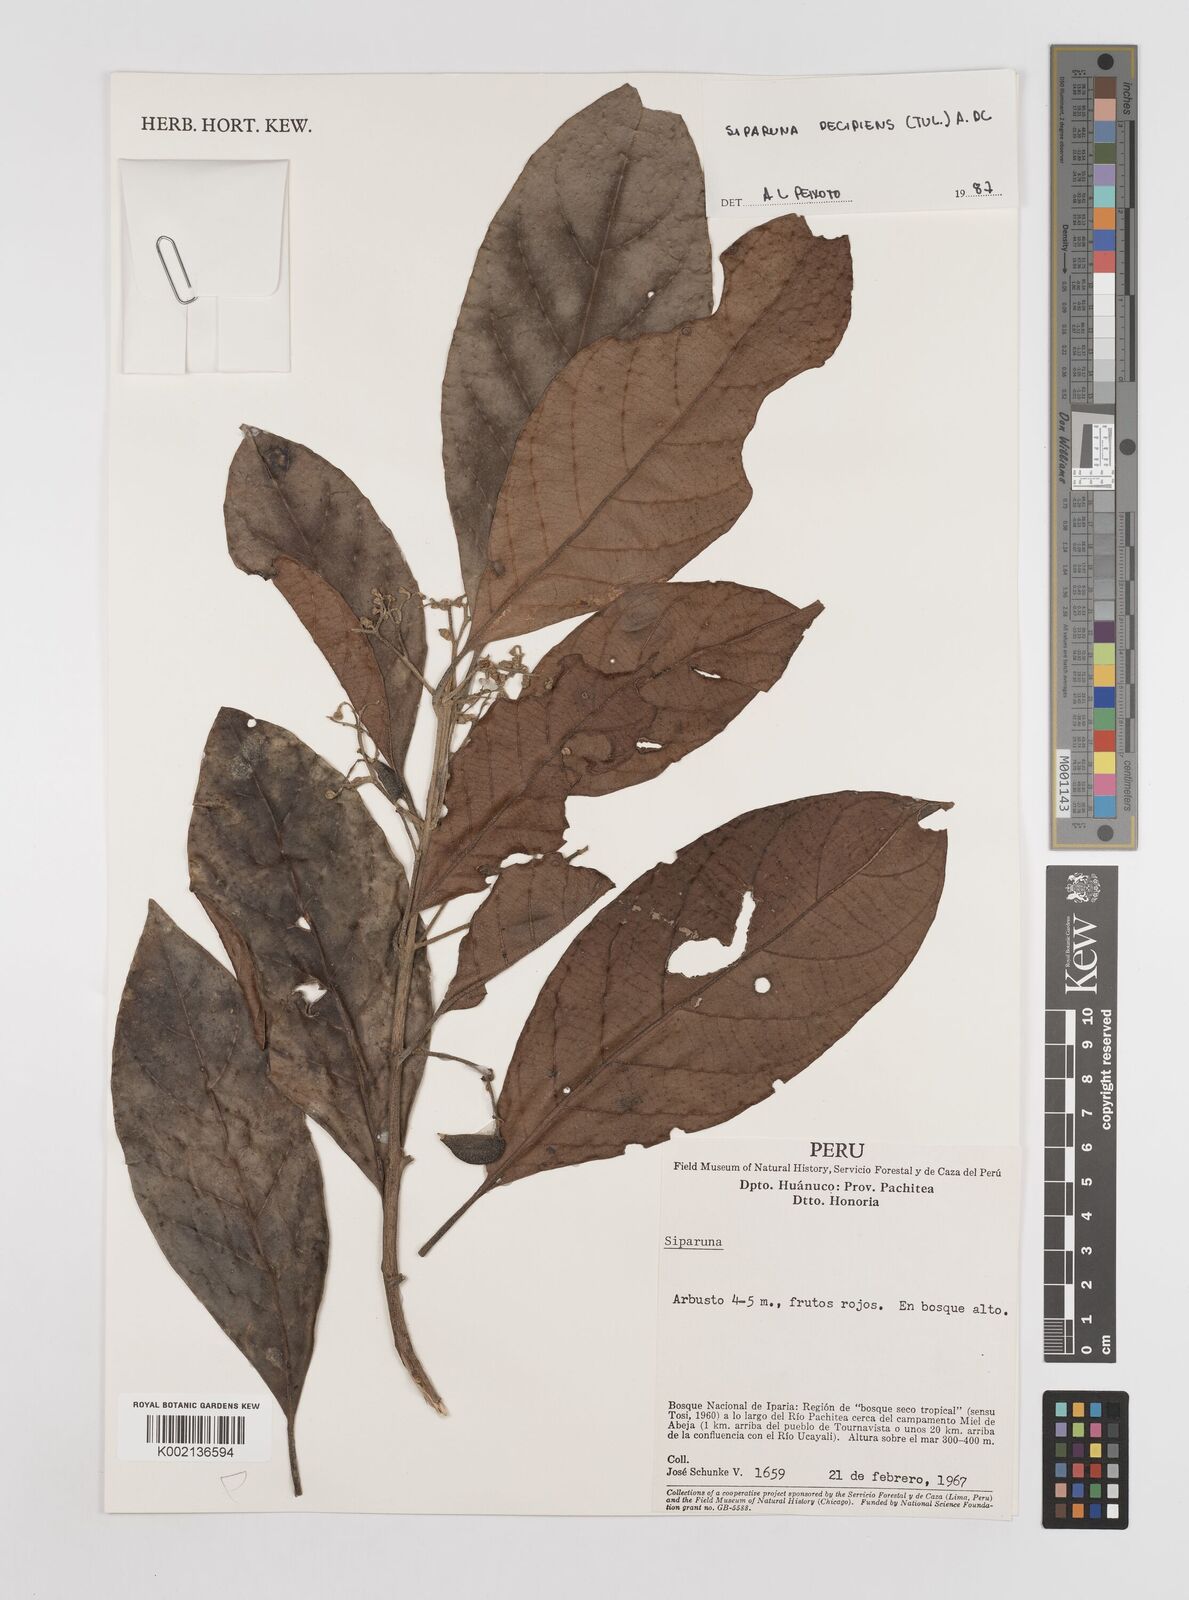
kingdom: Plantae
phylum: Tracheophyta
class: Magnoliopsida
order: Laurales
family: Siparunaceae
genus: Siparuna
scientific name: Siparuna decipiens
